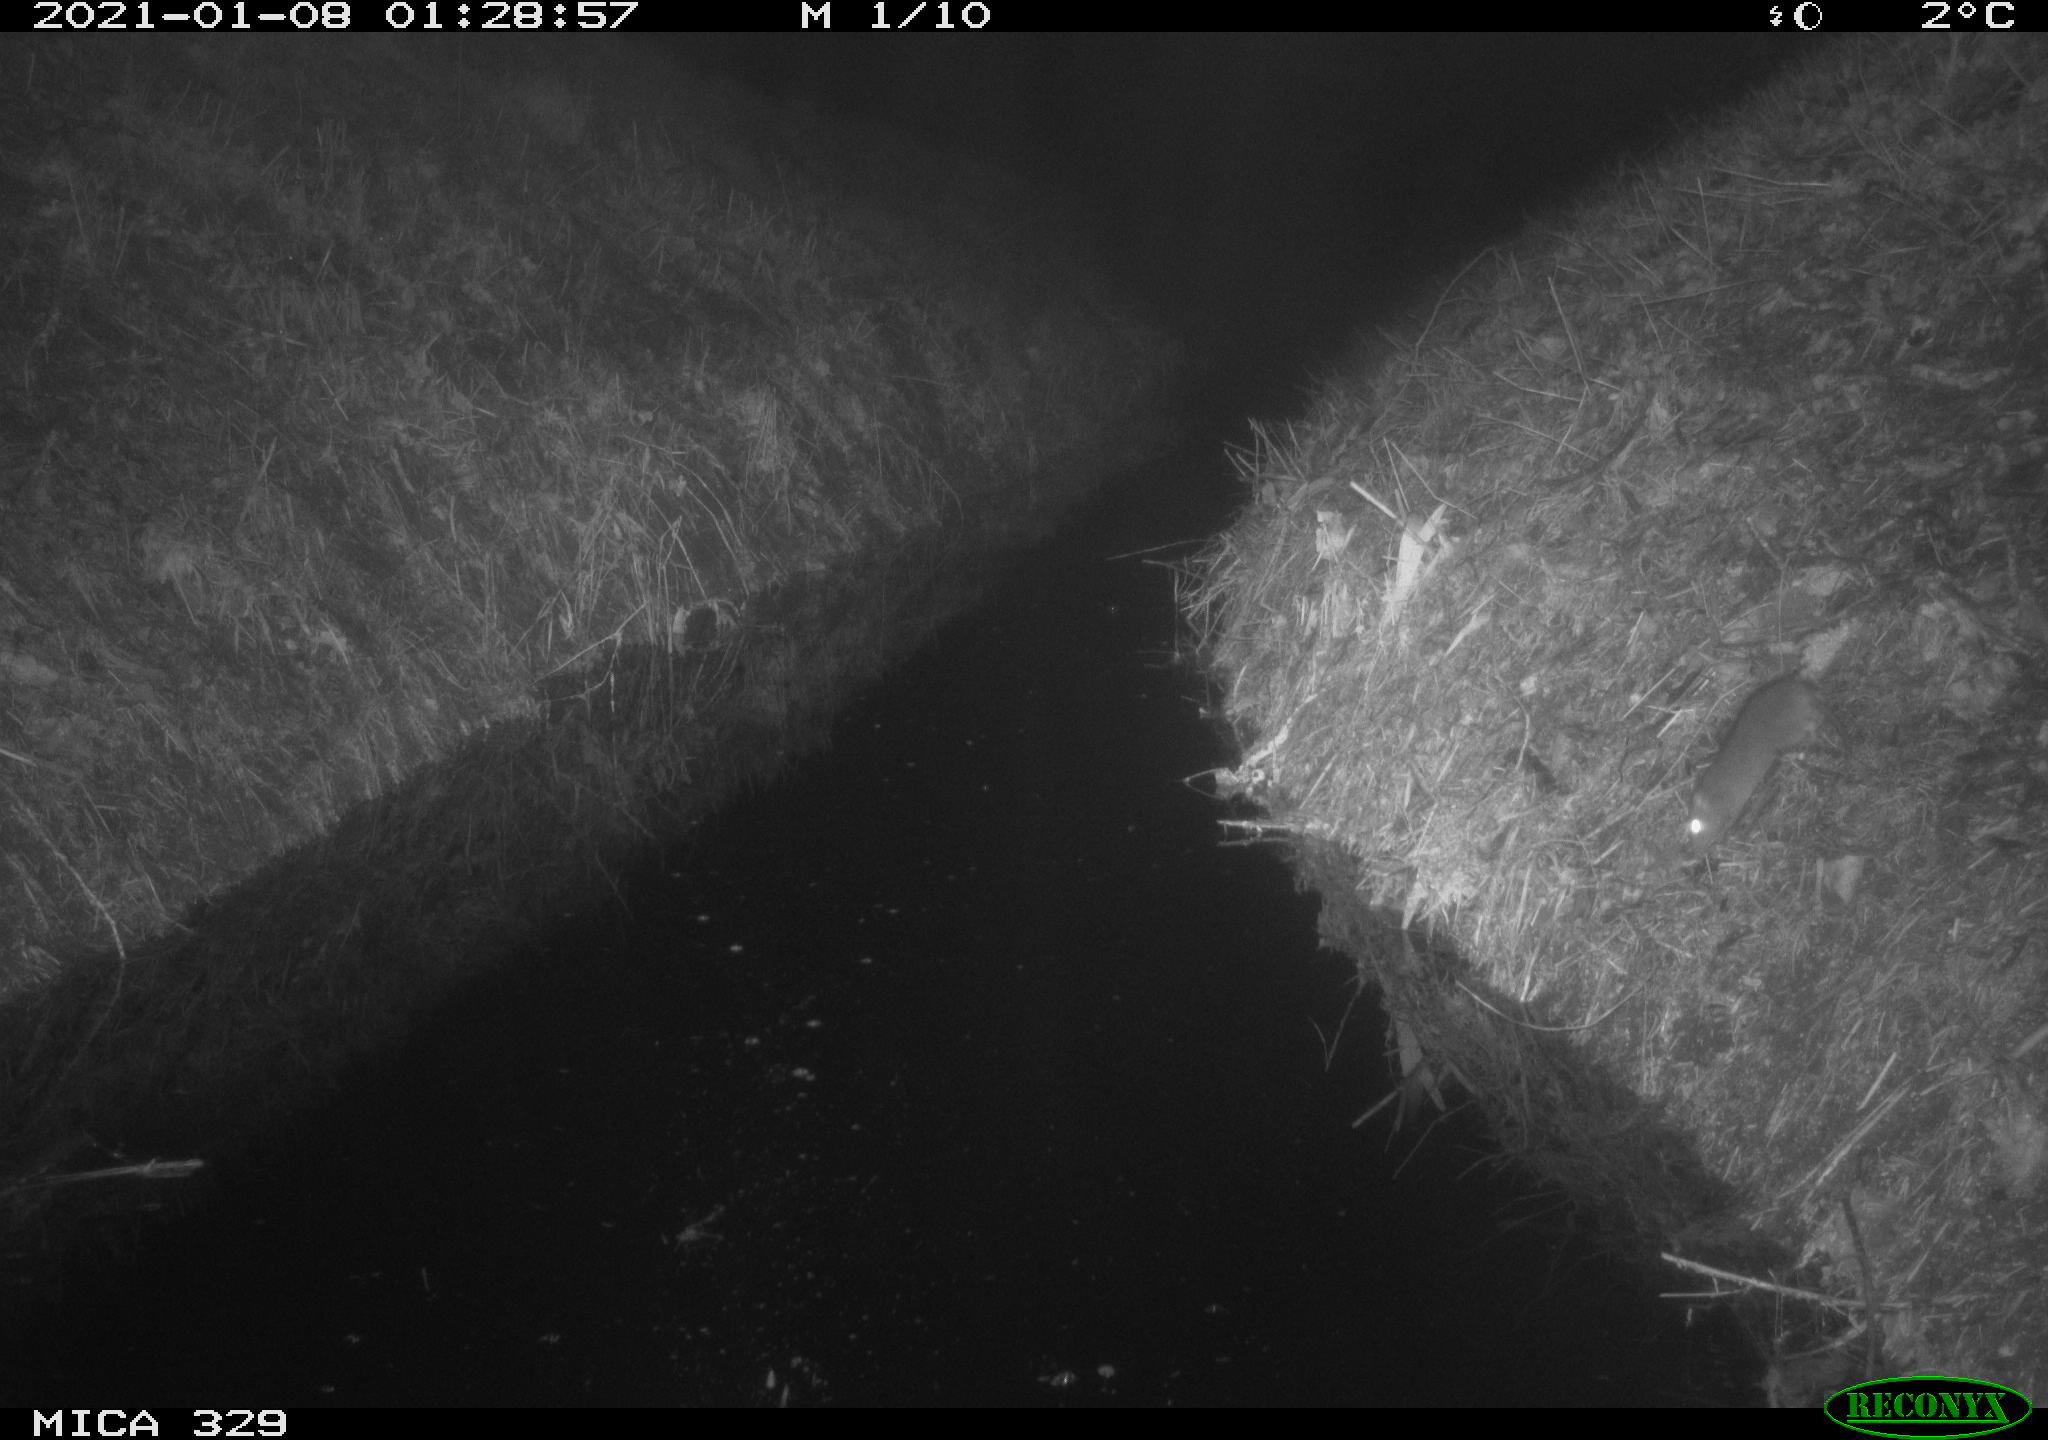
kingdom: Animalia
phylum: Chordata
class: Mammalia
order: Rodentia
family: Muridae
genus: Rattus
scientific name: Rattus norvegicus
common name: Brown rat
